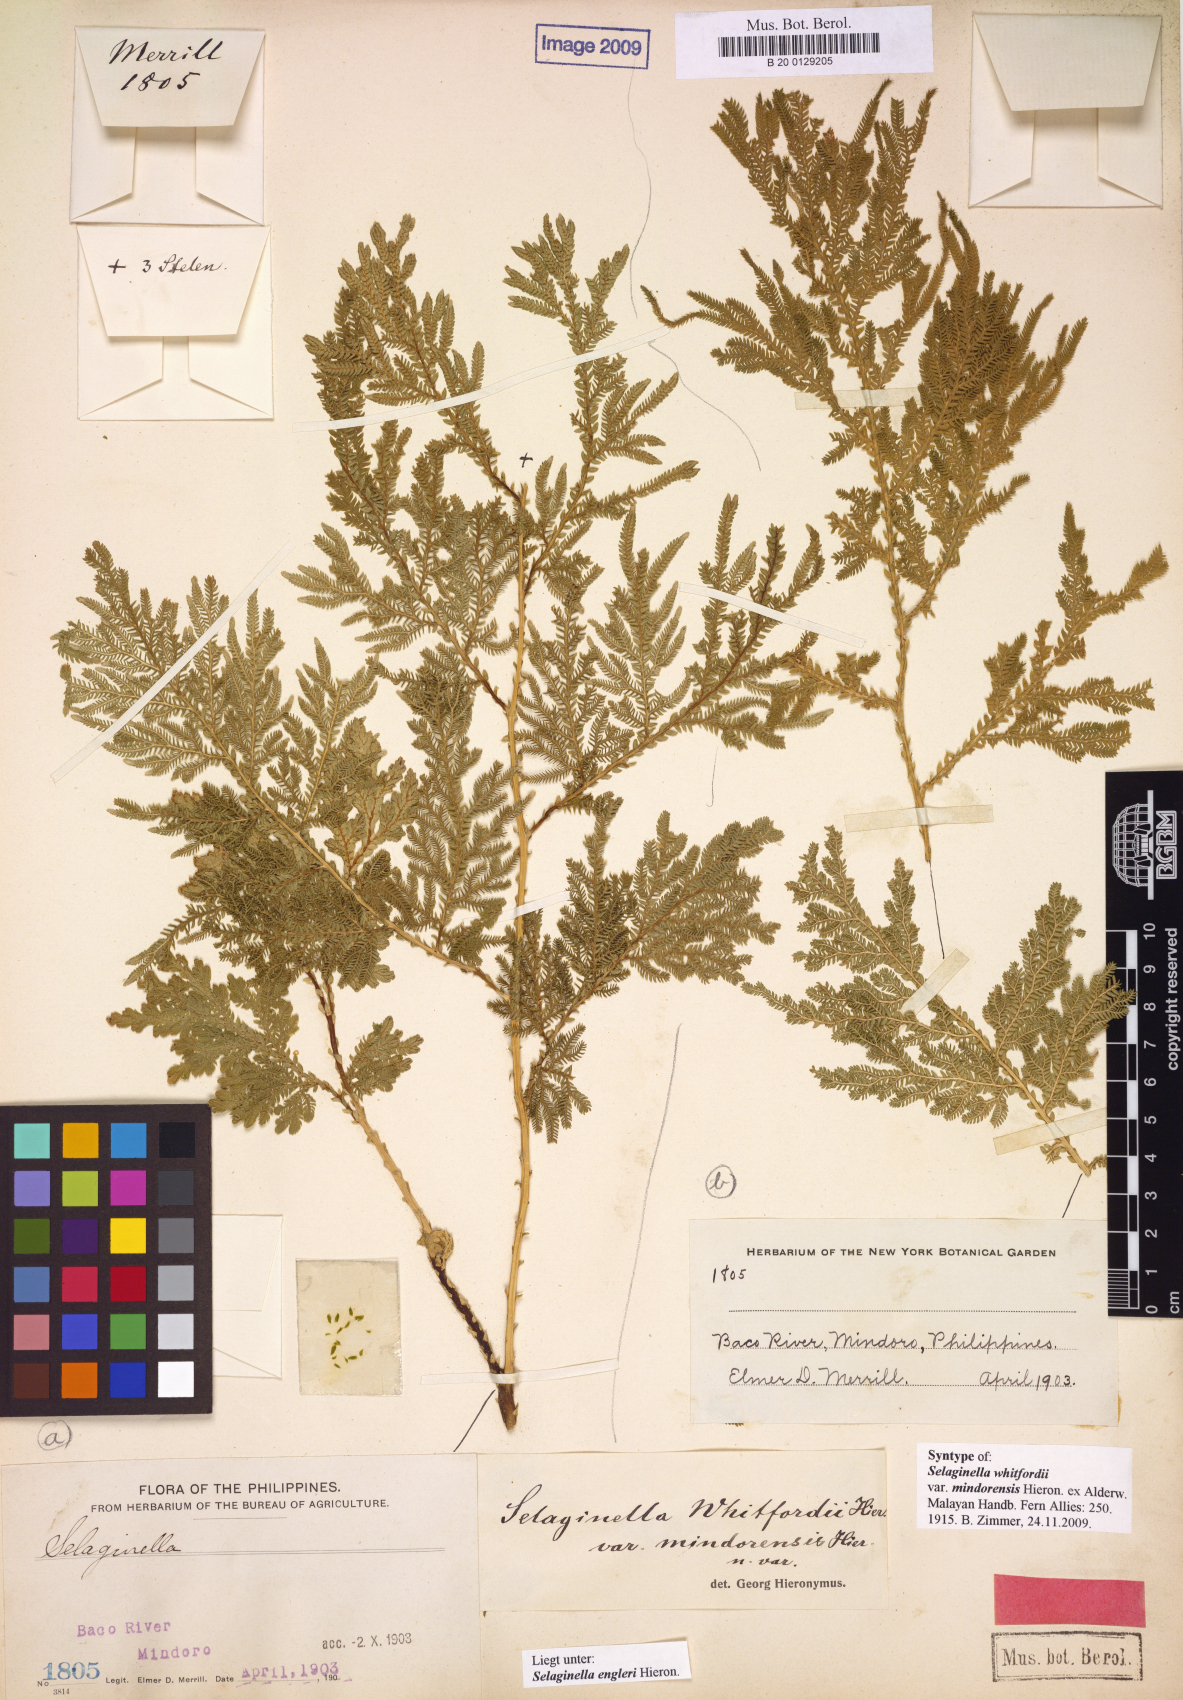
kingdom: Plantae
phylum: Tracheophyta
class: Lycopodiopsida
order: Selaginellales
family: Selaginellaceae
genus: Selaginella
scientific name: Selaginella engleri
